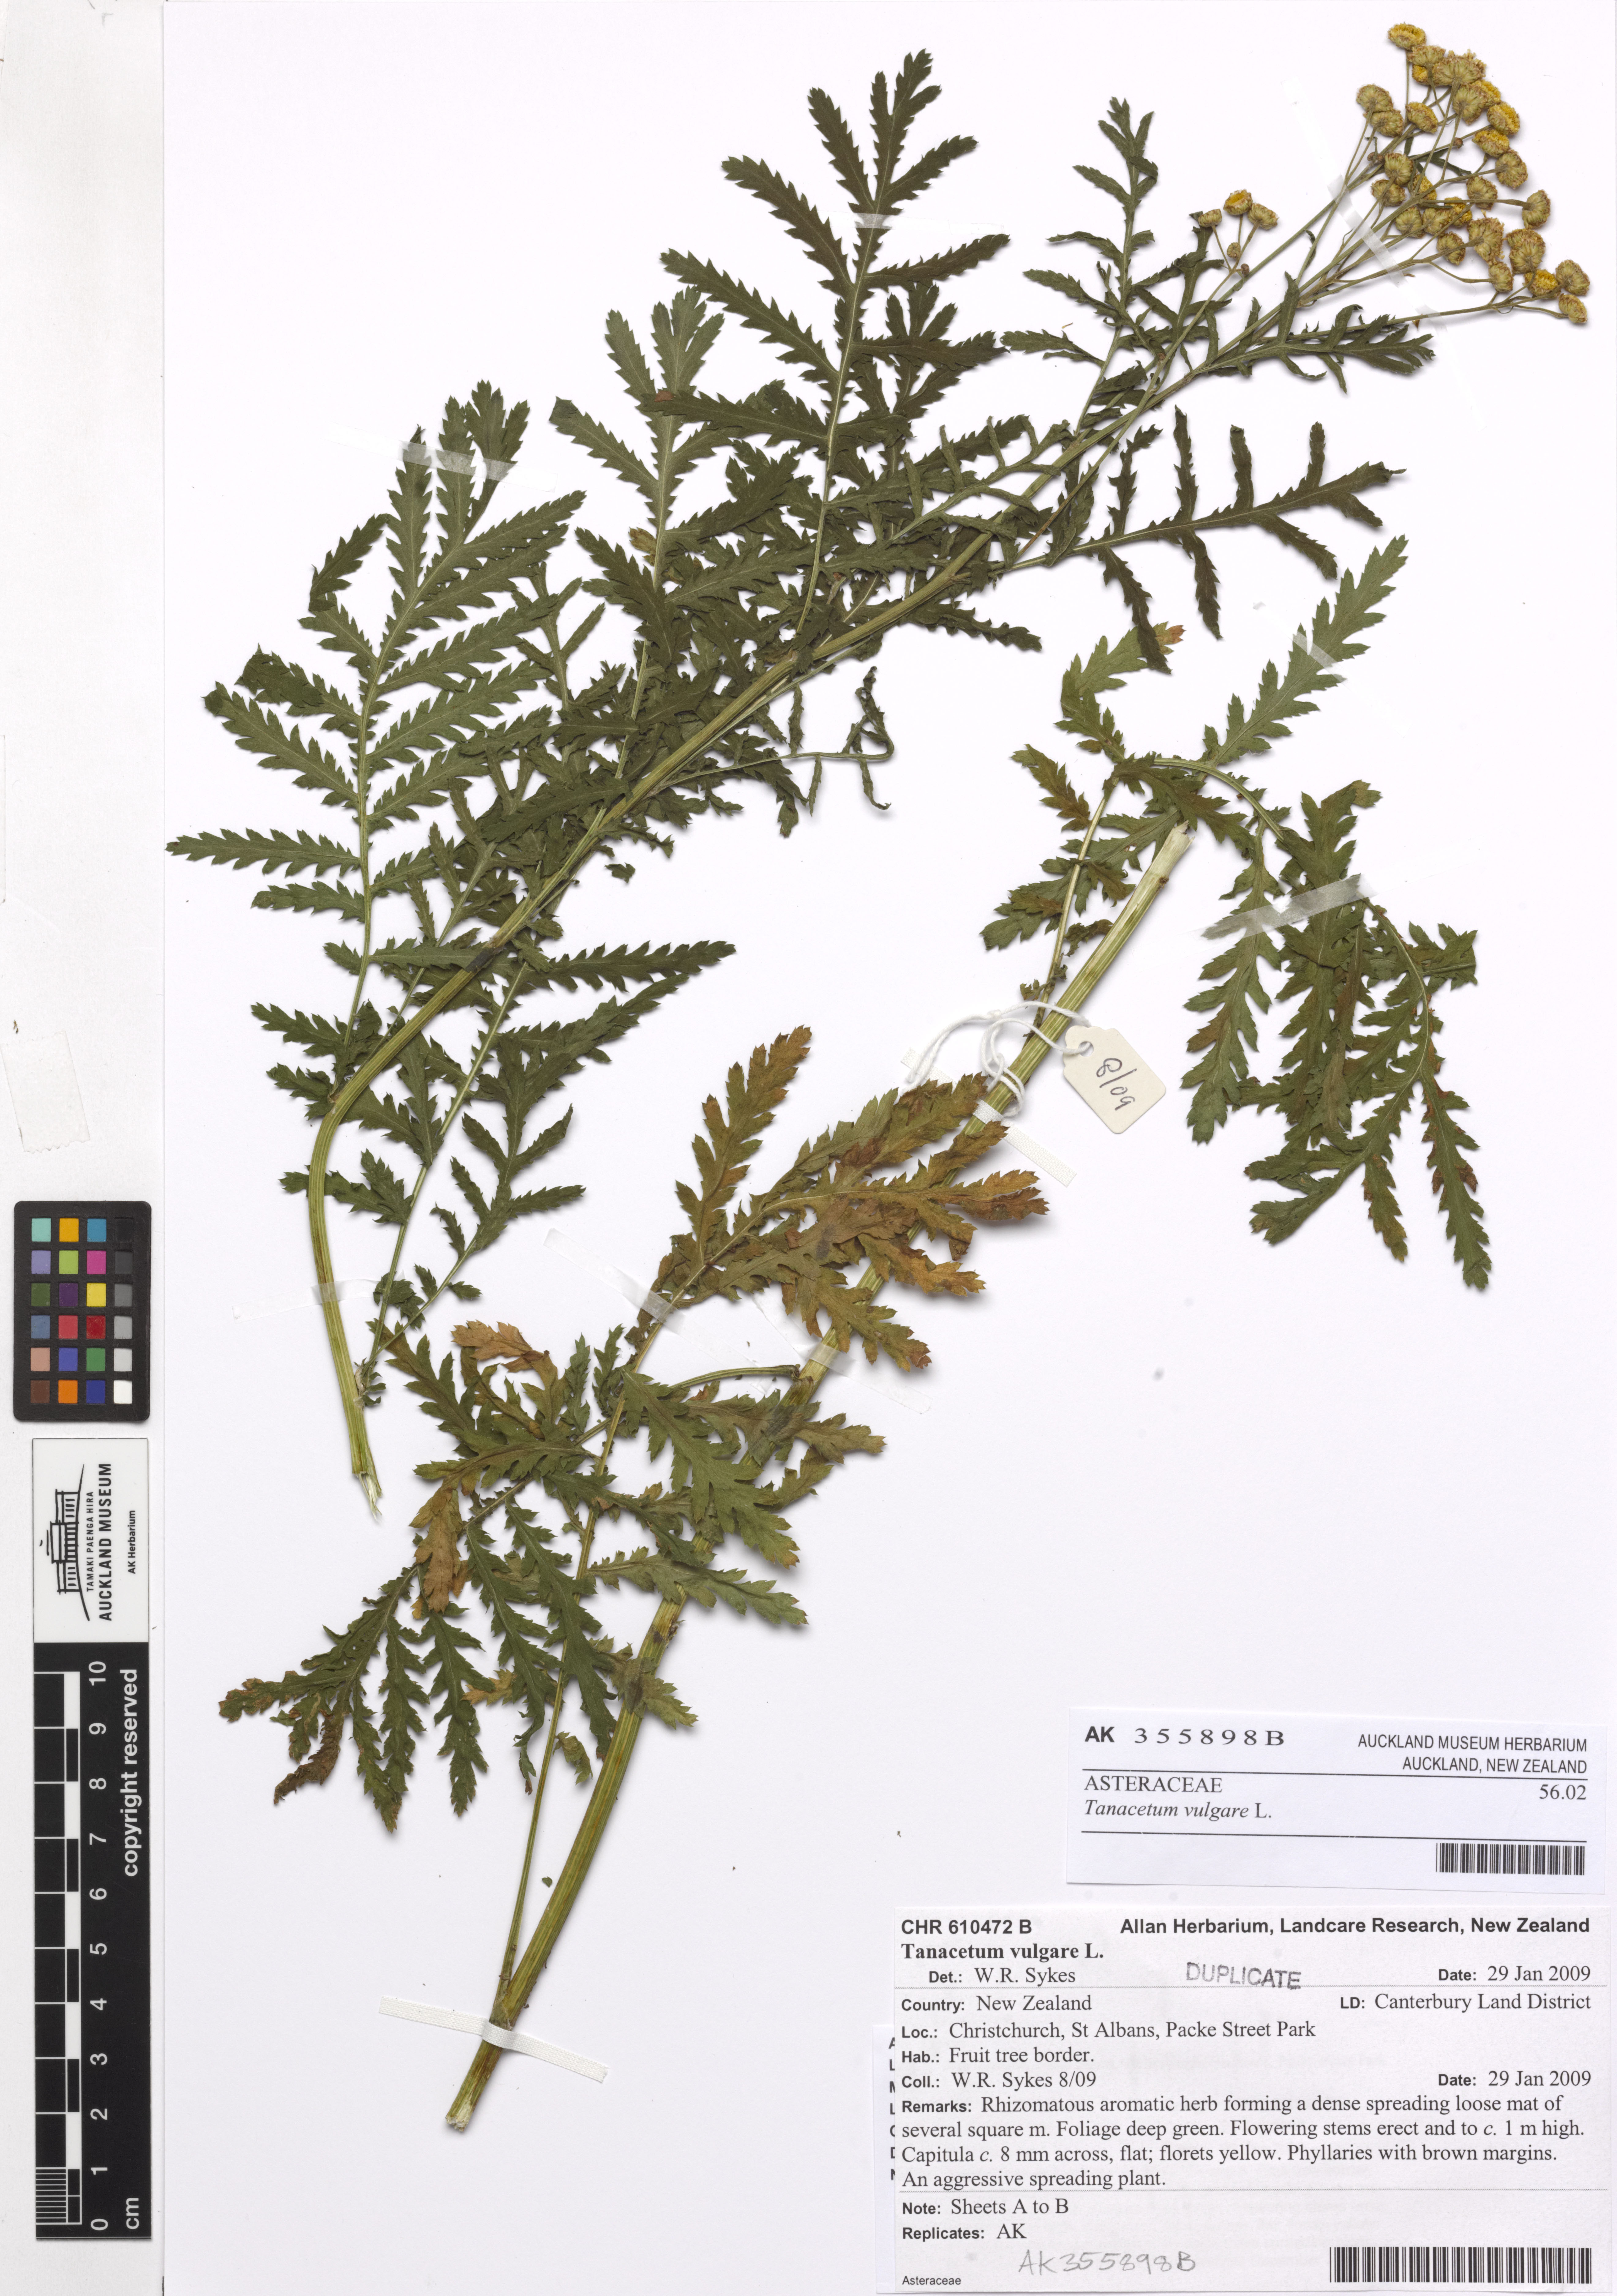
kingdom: Plantae
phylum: Tracheophyta
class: Magnoliopsida
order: Asterales
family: Asteraceae
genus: Tanacetum
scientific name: Tanacetum vulgare
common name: Common tansy
